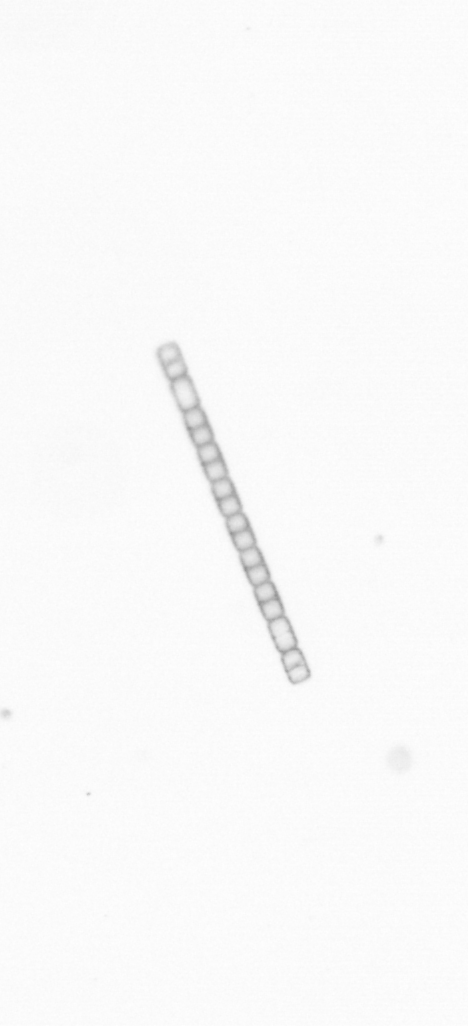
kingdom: Chromista
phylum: Ochrophyta
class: Bacillariophyceae
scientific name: Bacillariophyceae
